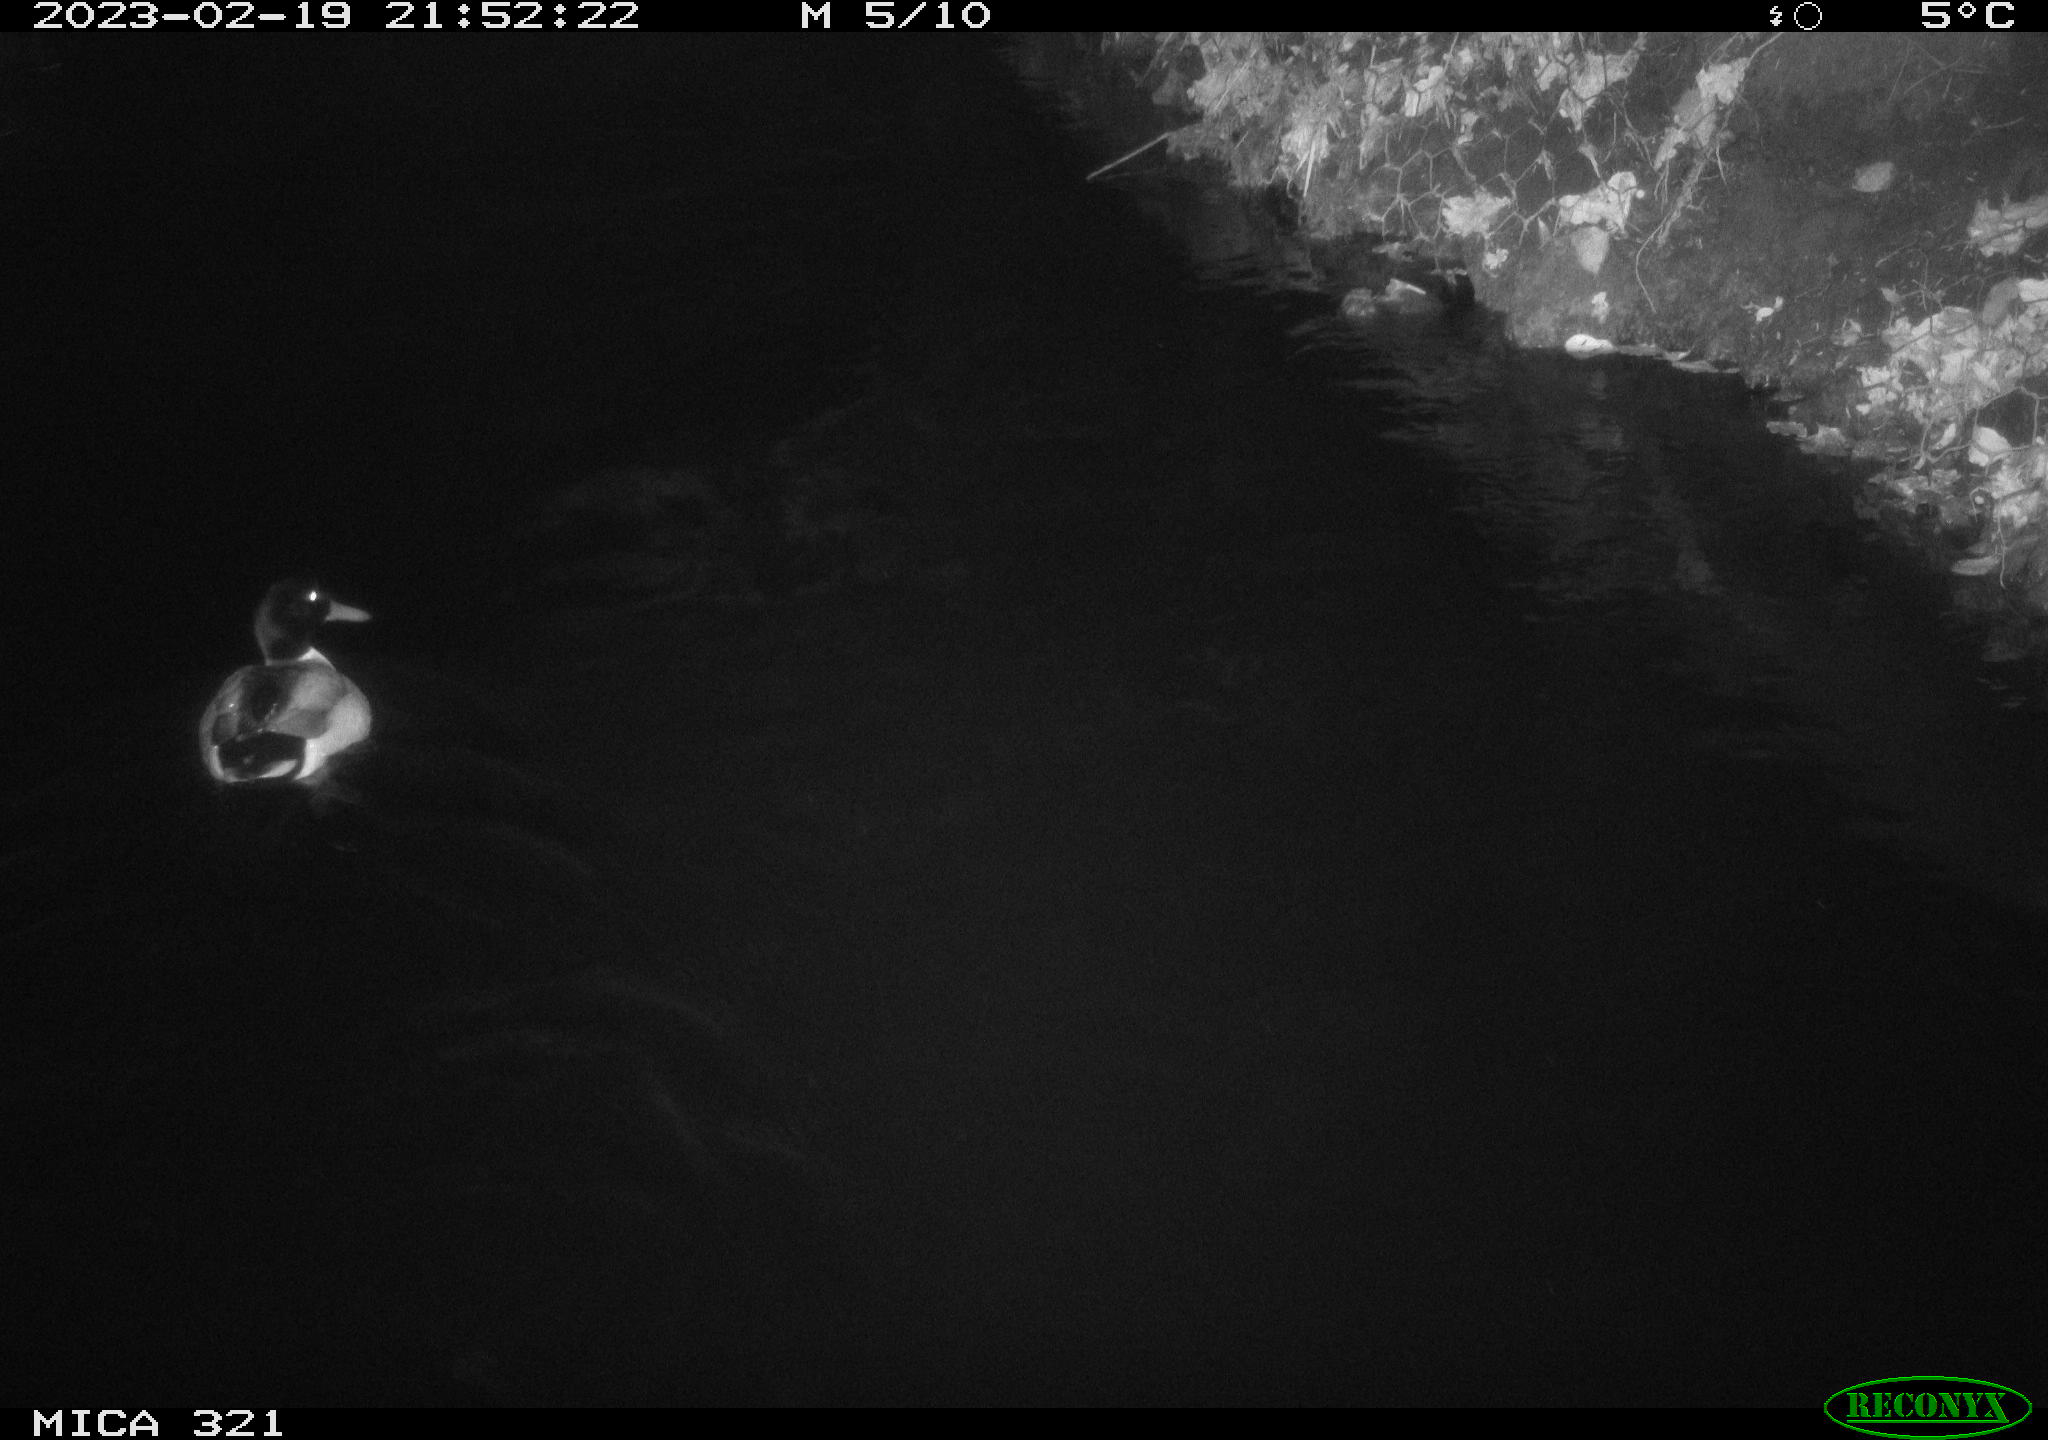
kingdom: Animalia
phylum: Chordata
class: Aves
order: Anseriformes
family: Anatidae
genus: Anas
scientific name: Anas
